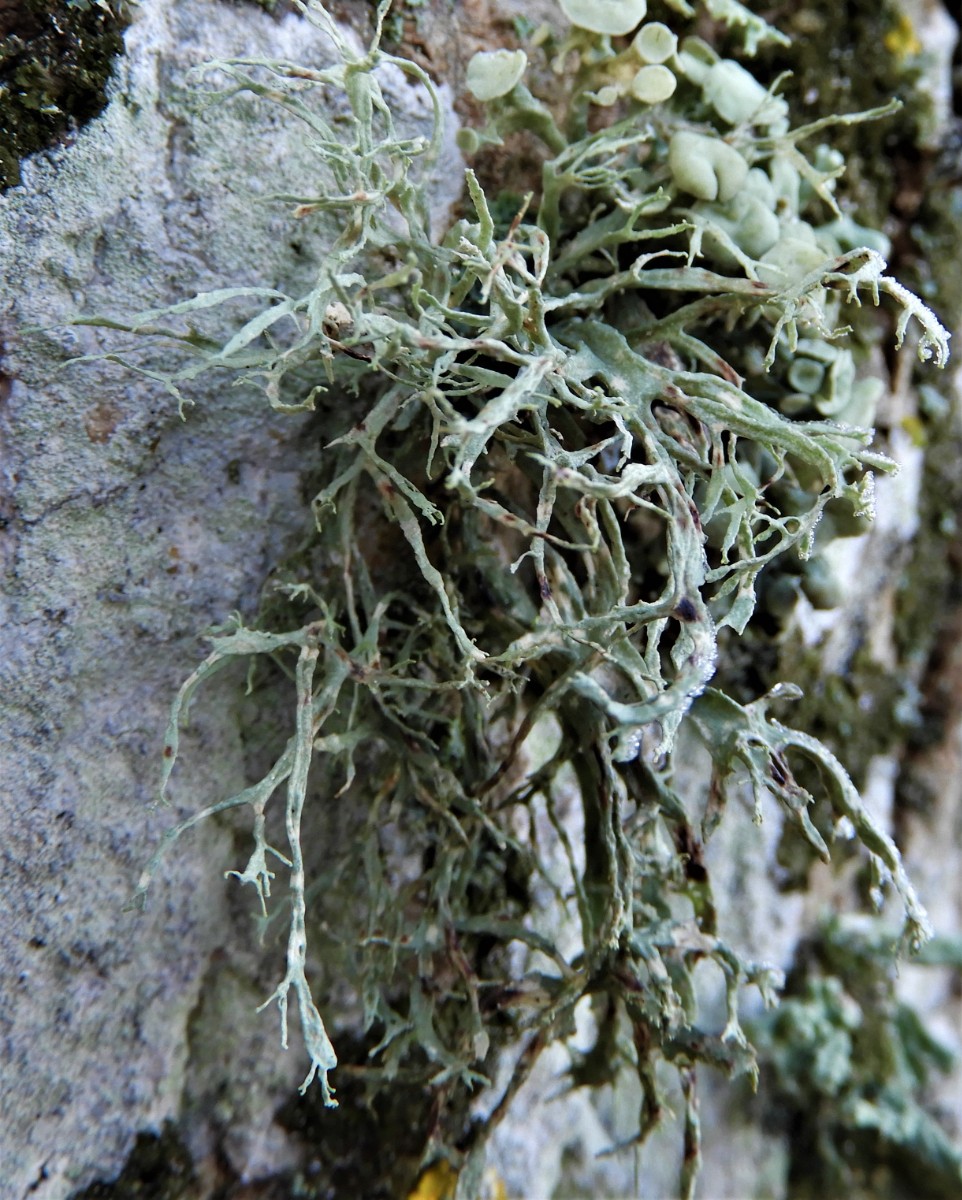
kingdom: Fungi
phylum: Ascomycota
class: Lecanoromycetes
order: Lecanorales
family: Ramalinaceae
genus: Ramalina
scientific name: Ramalina farinacea
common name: melet grenlav
